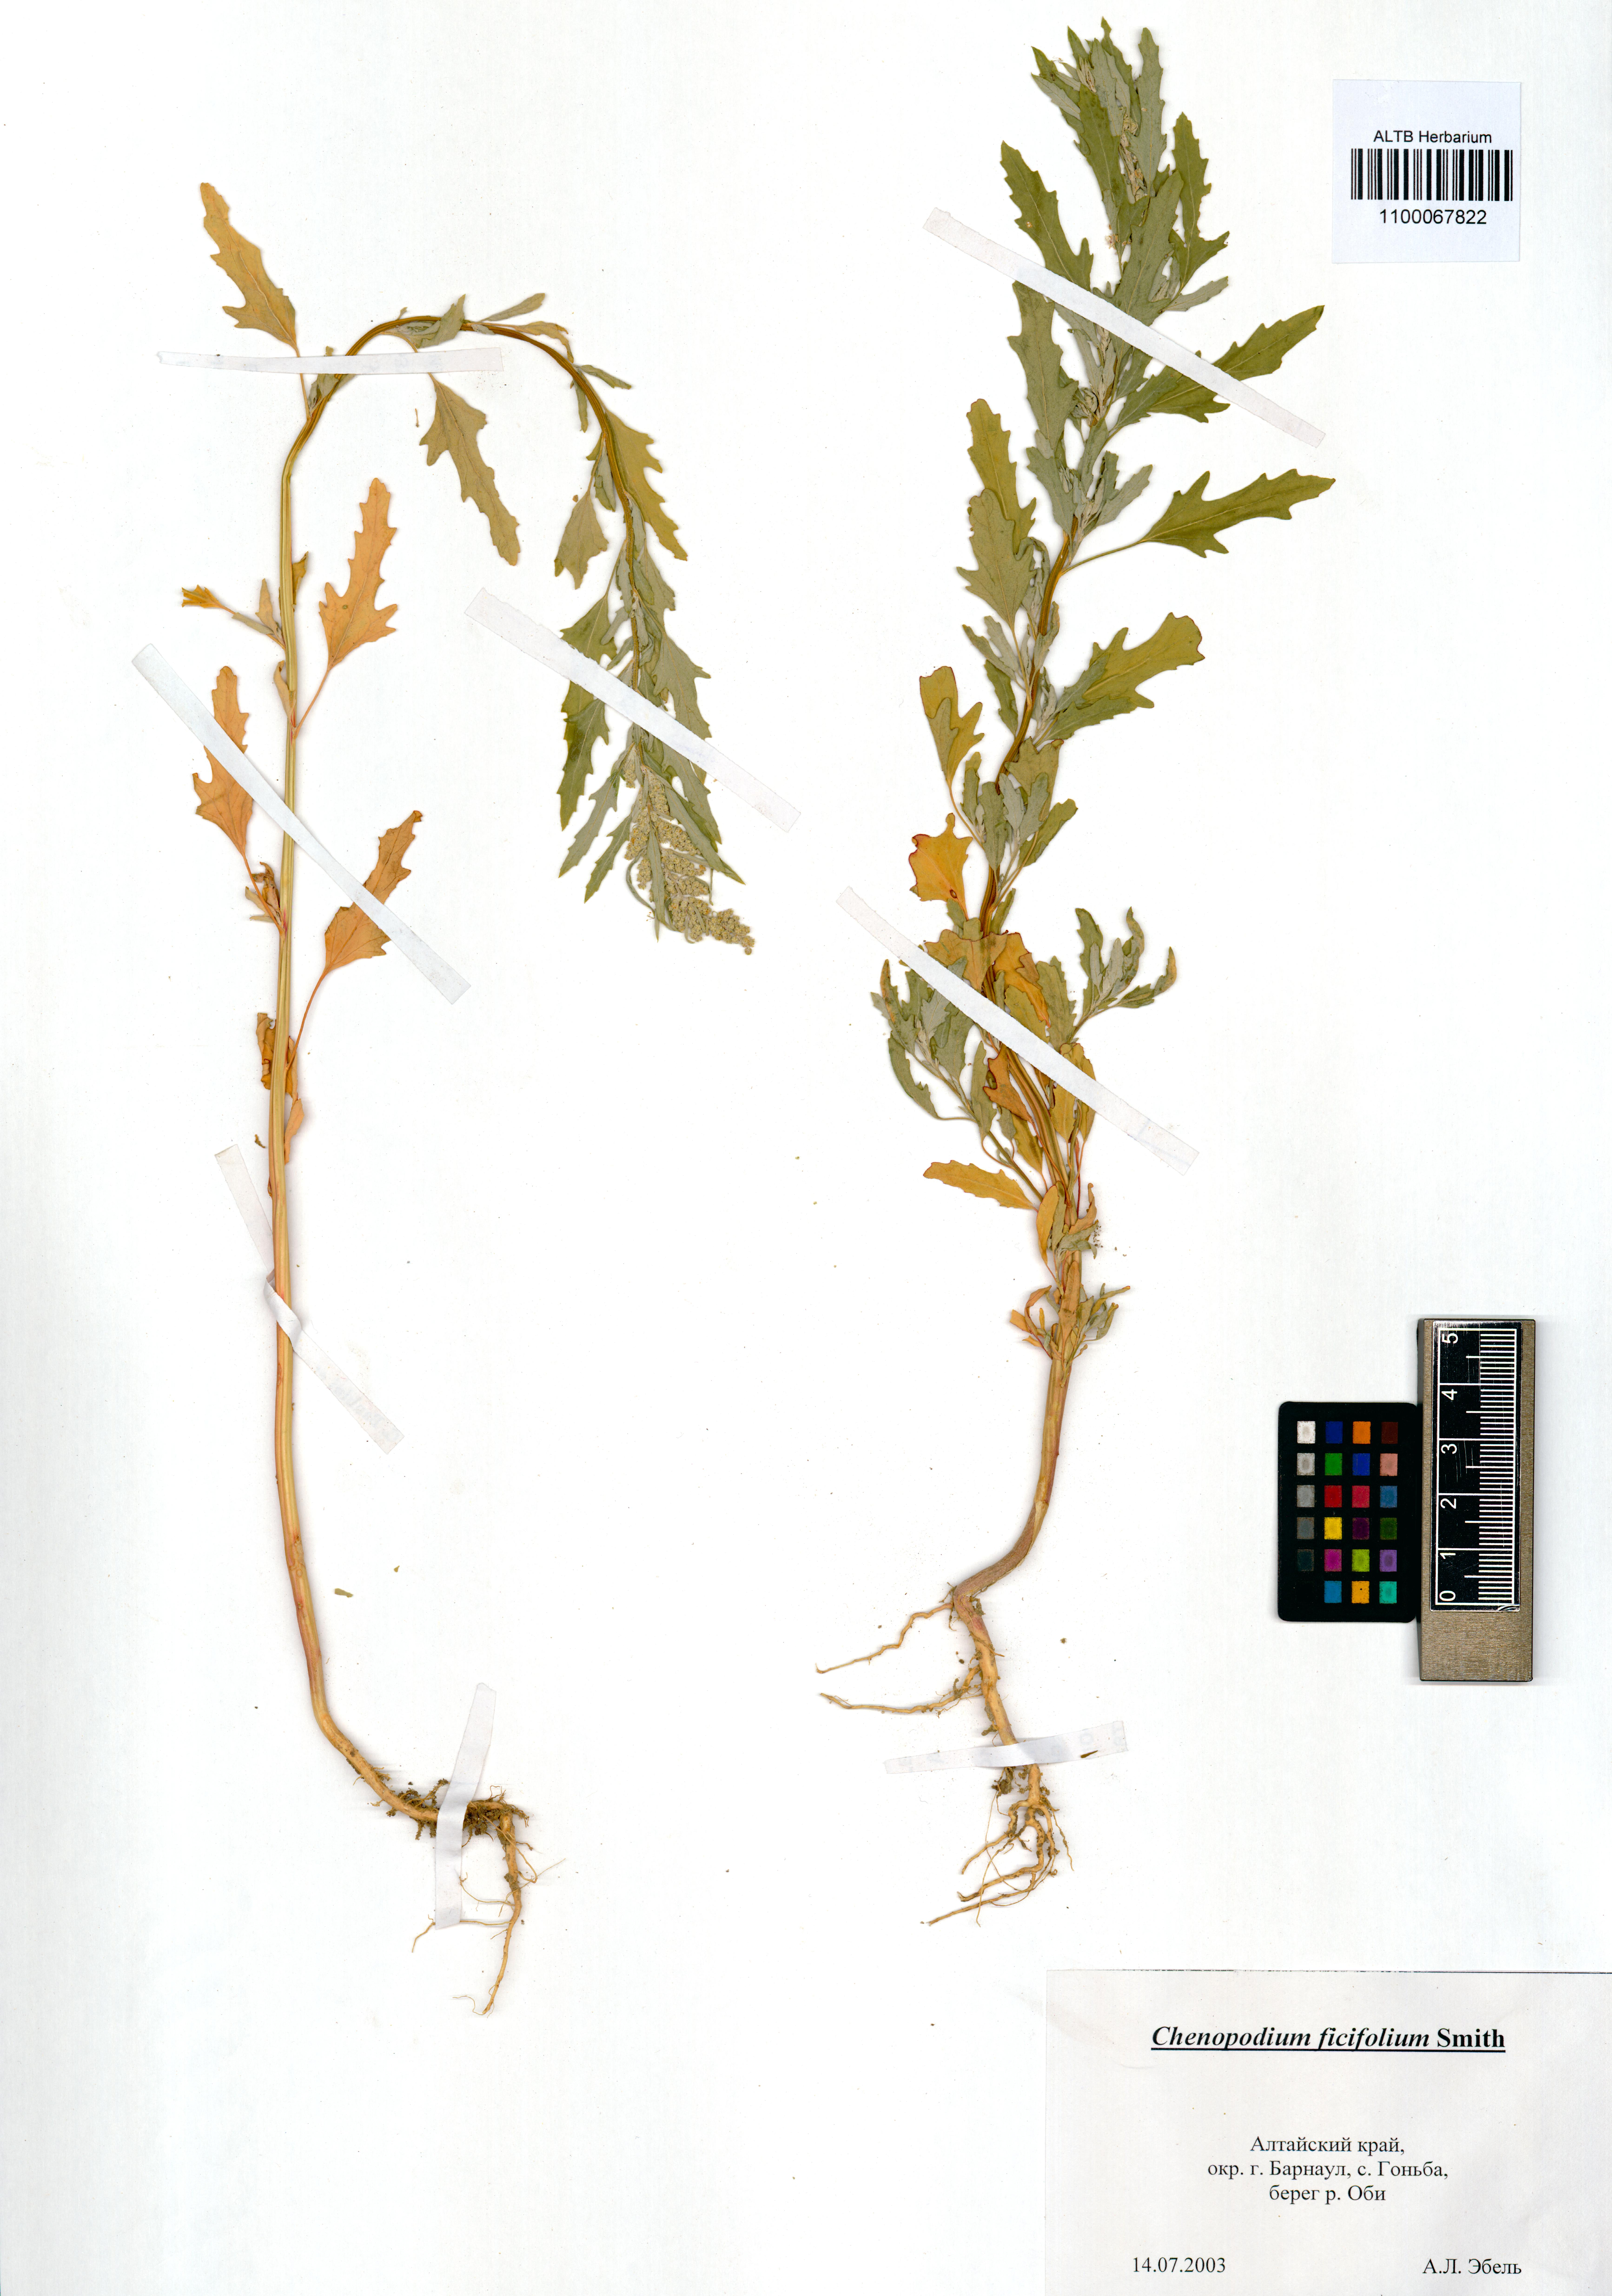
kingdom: Plantae
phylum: Tracheophyta
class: Magnoliopsida
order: Caryophyllales
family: Amaranthaceae
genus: Chenopodium
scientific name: Chenopodium ficifolium
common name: Fig-leaved goosefoot
